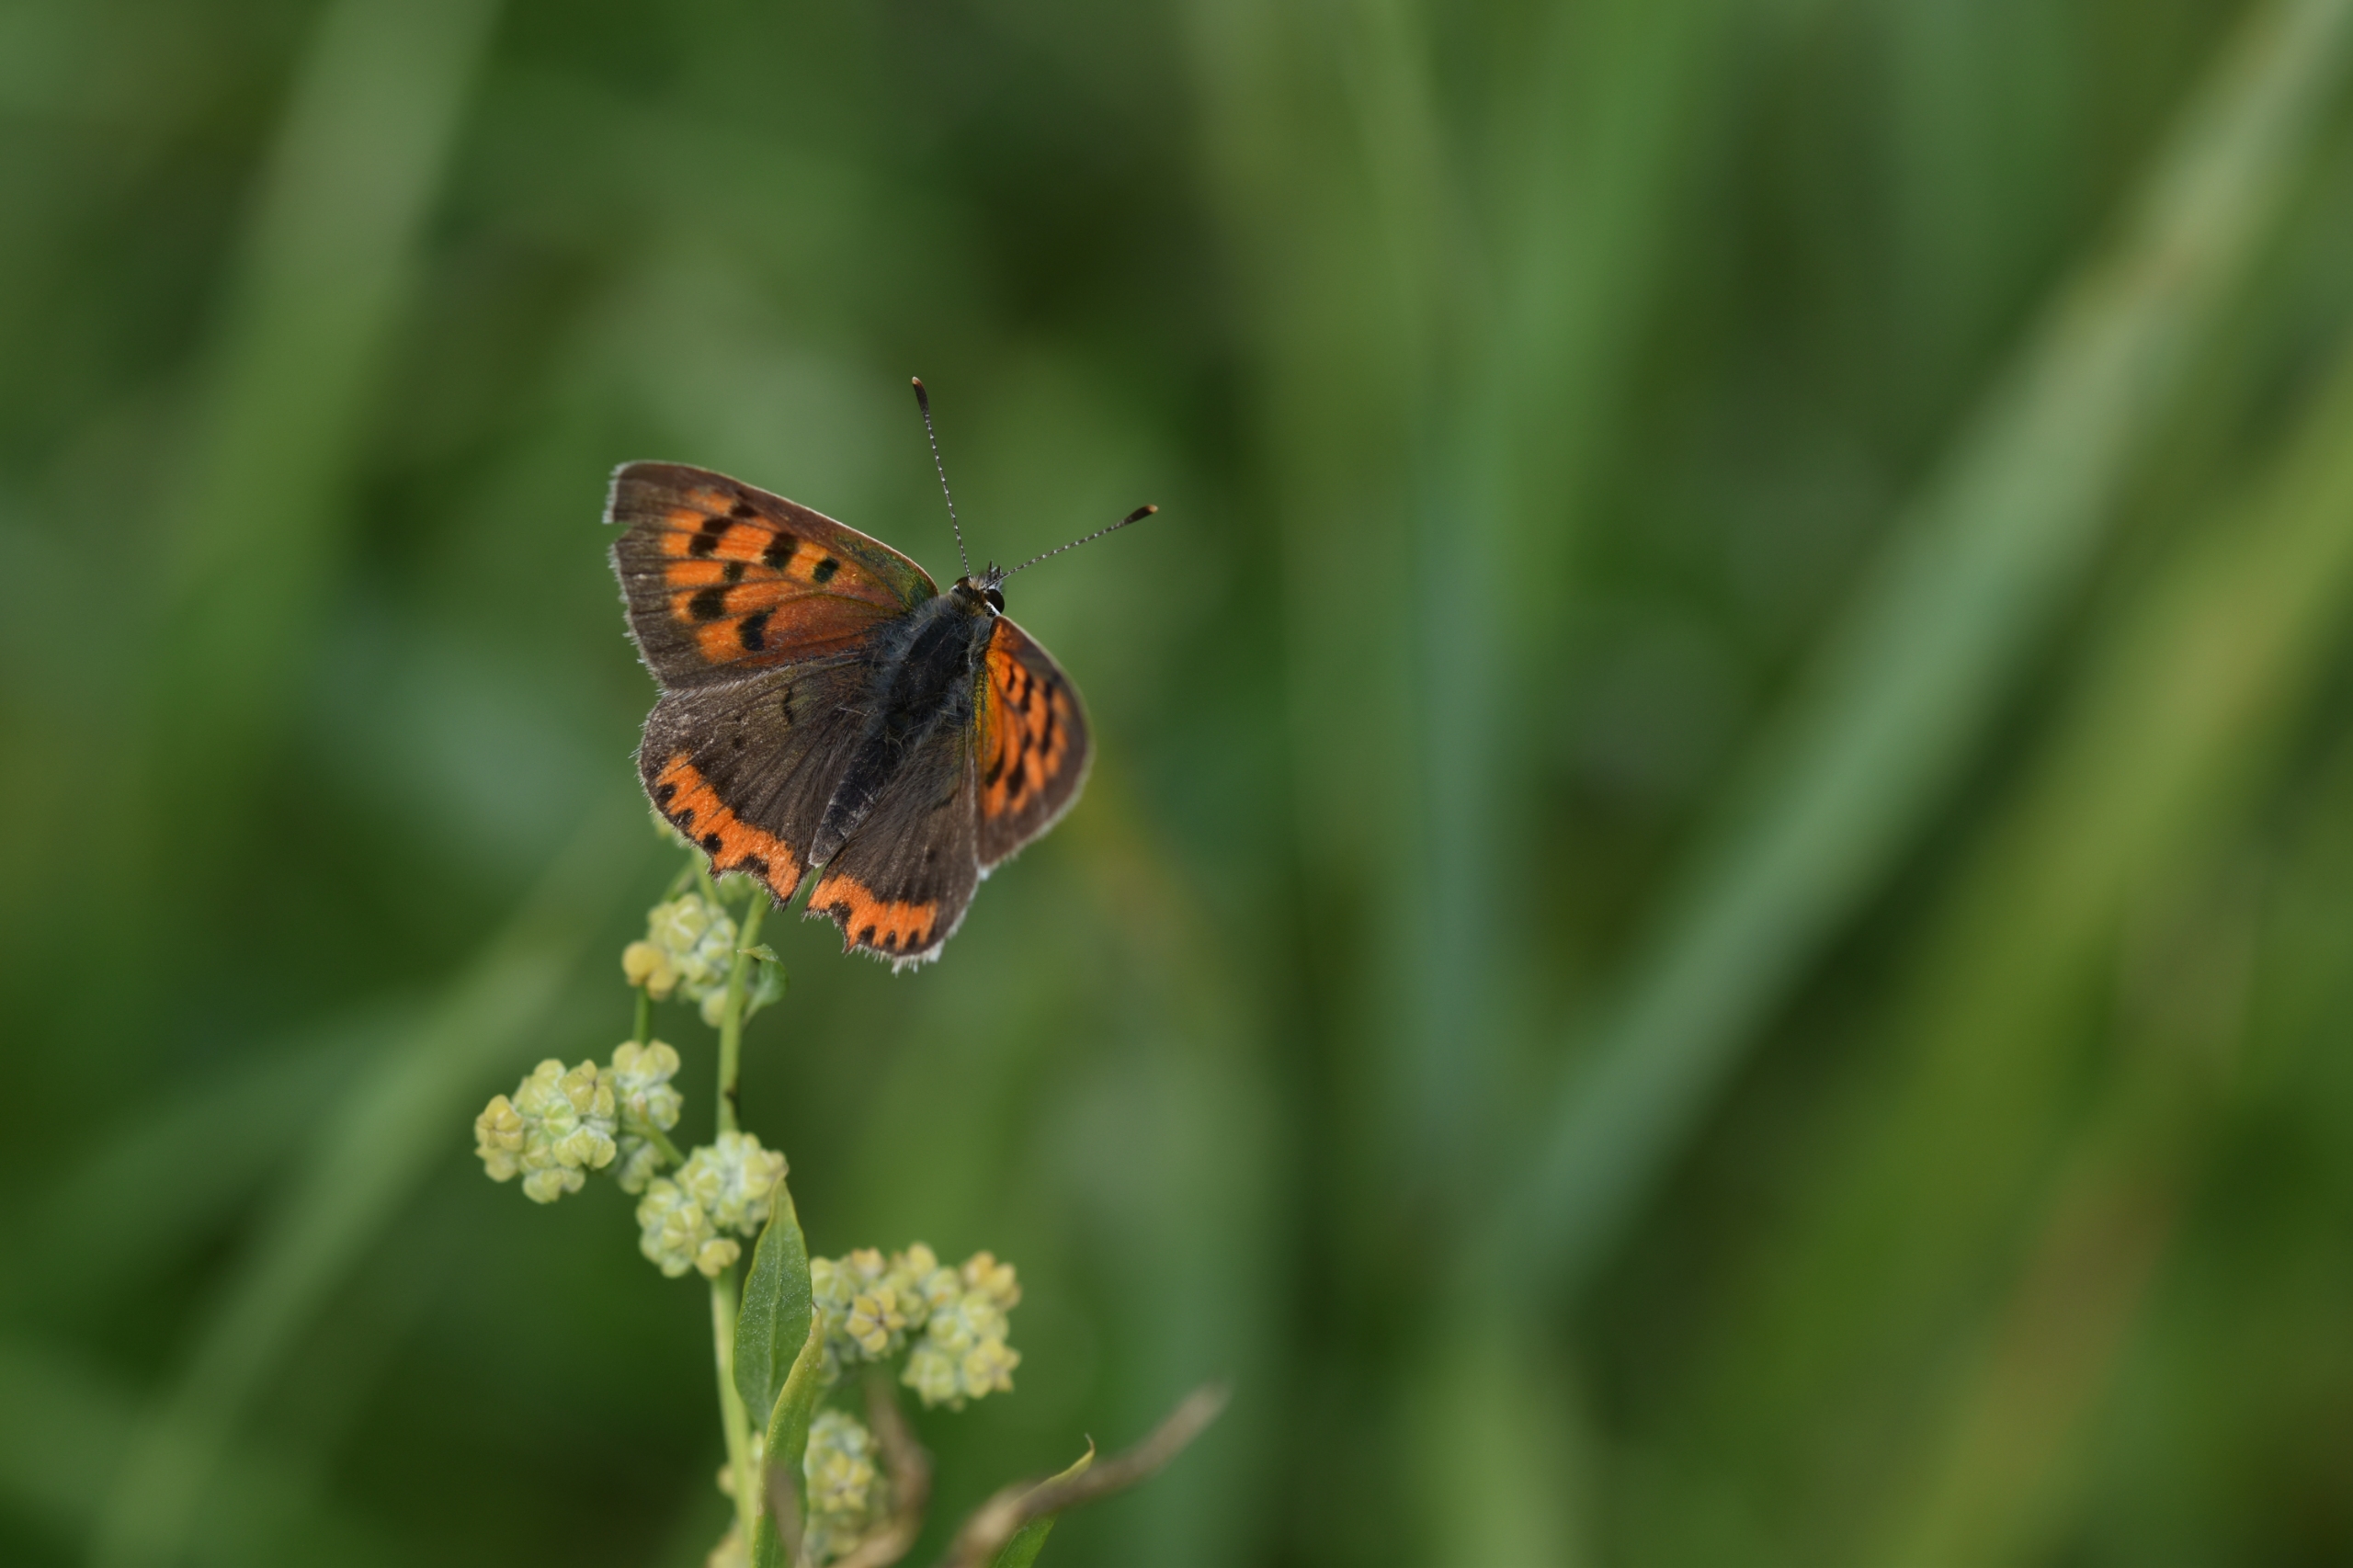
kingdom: Animalia
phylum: Arthropoda
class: Insecta
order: Lepidoptera
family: Lycaenidae
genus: Lycaena
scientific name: Lycaena phlaeas
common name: Lille ildfugl
